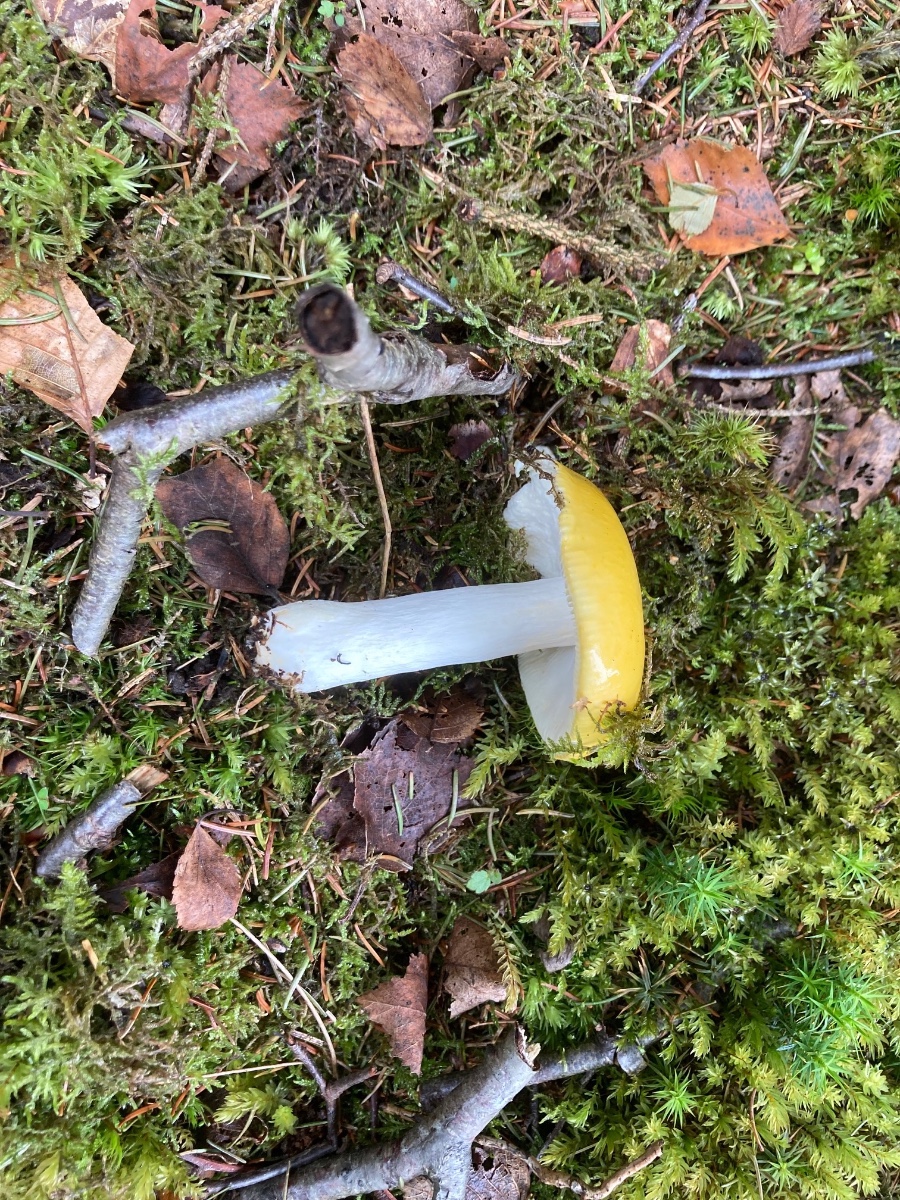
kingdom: Fungi
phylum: Basidiomycota
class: Agaricomycetes
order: Russulales
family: Russulaceae
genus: Russula
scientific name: Russula claroflava
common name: birke-skørhat
